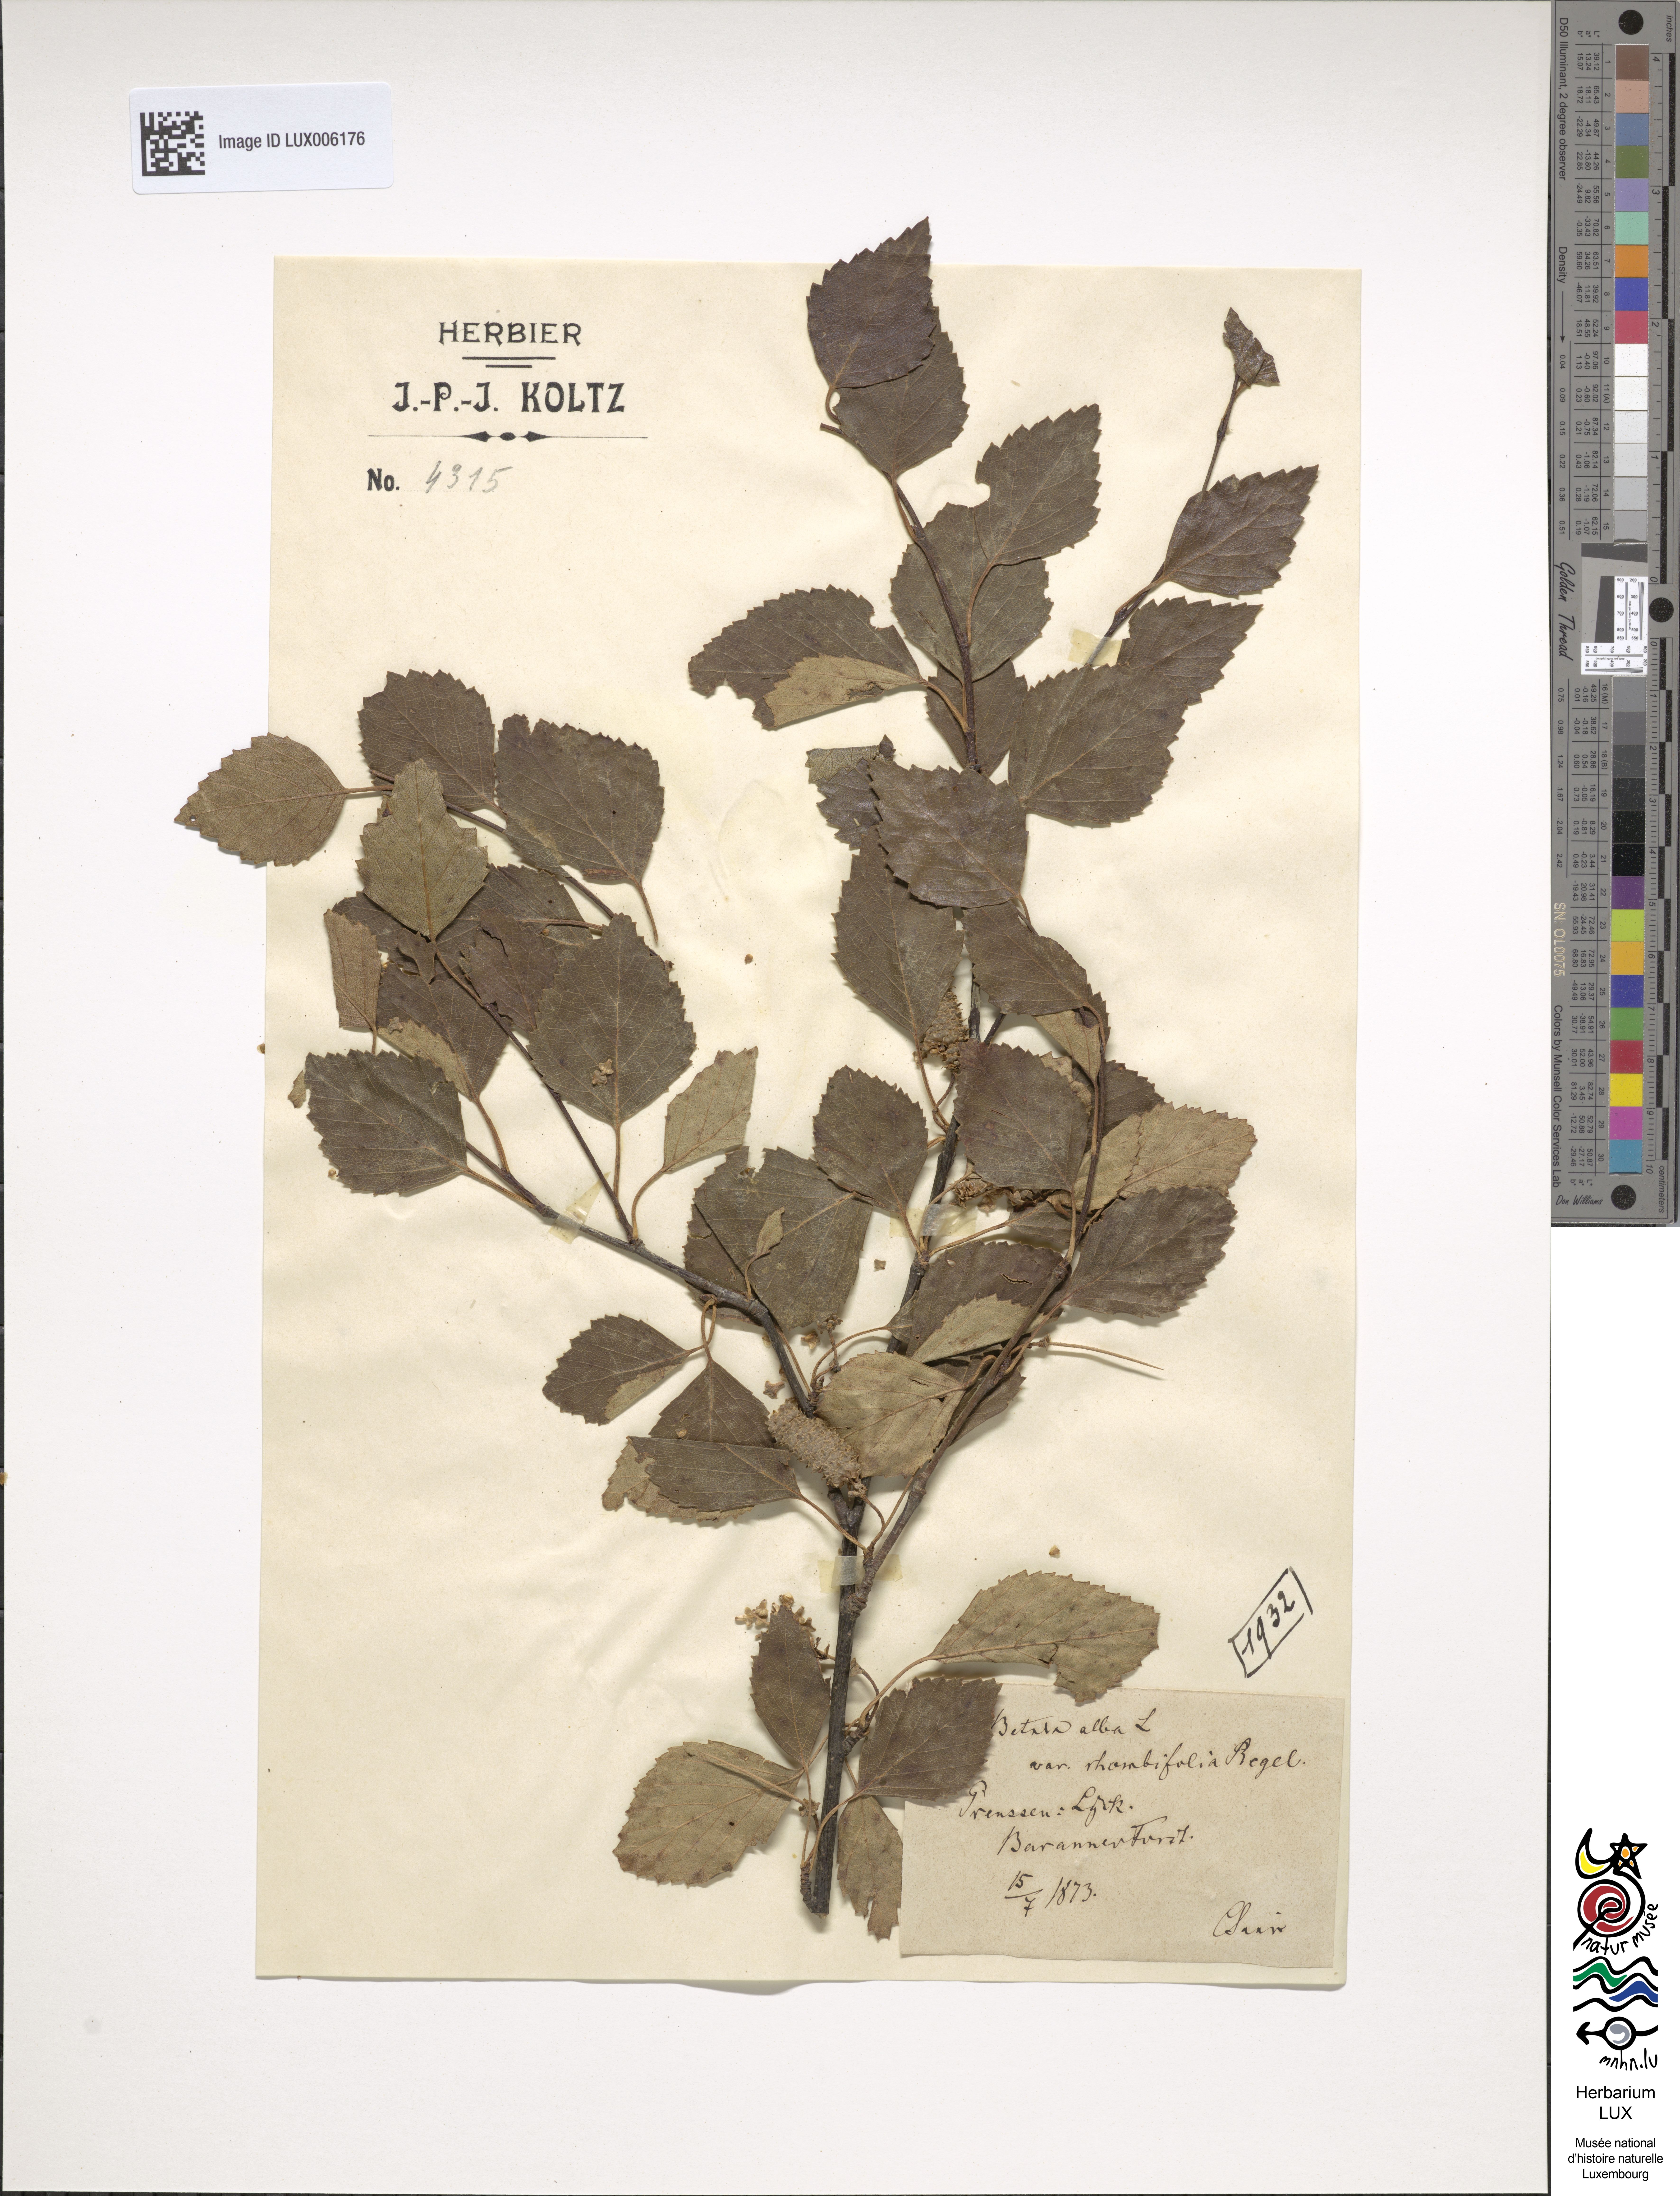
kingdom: Plantae
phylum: Tracheophyta
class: Magnoliopsida
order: Fagales
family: Betulaceae
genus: Betula
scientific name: Betula pendula
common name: Silver birch
